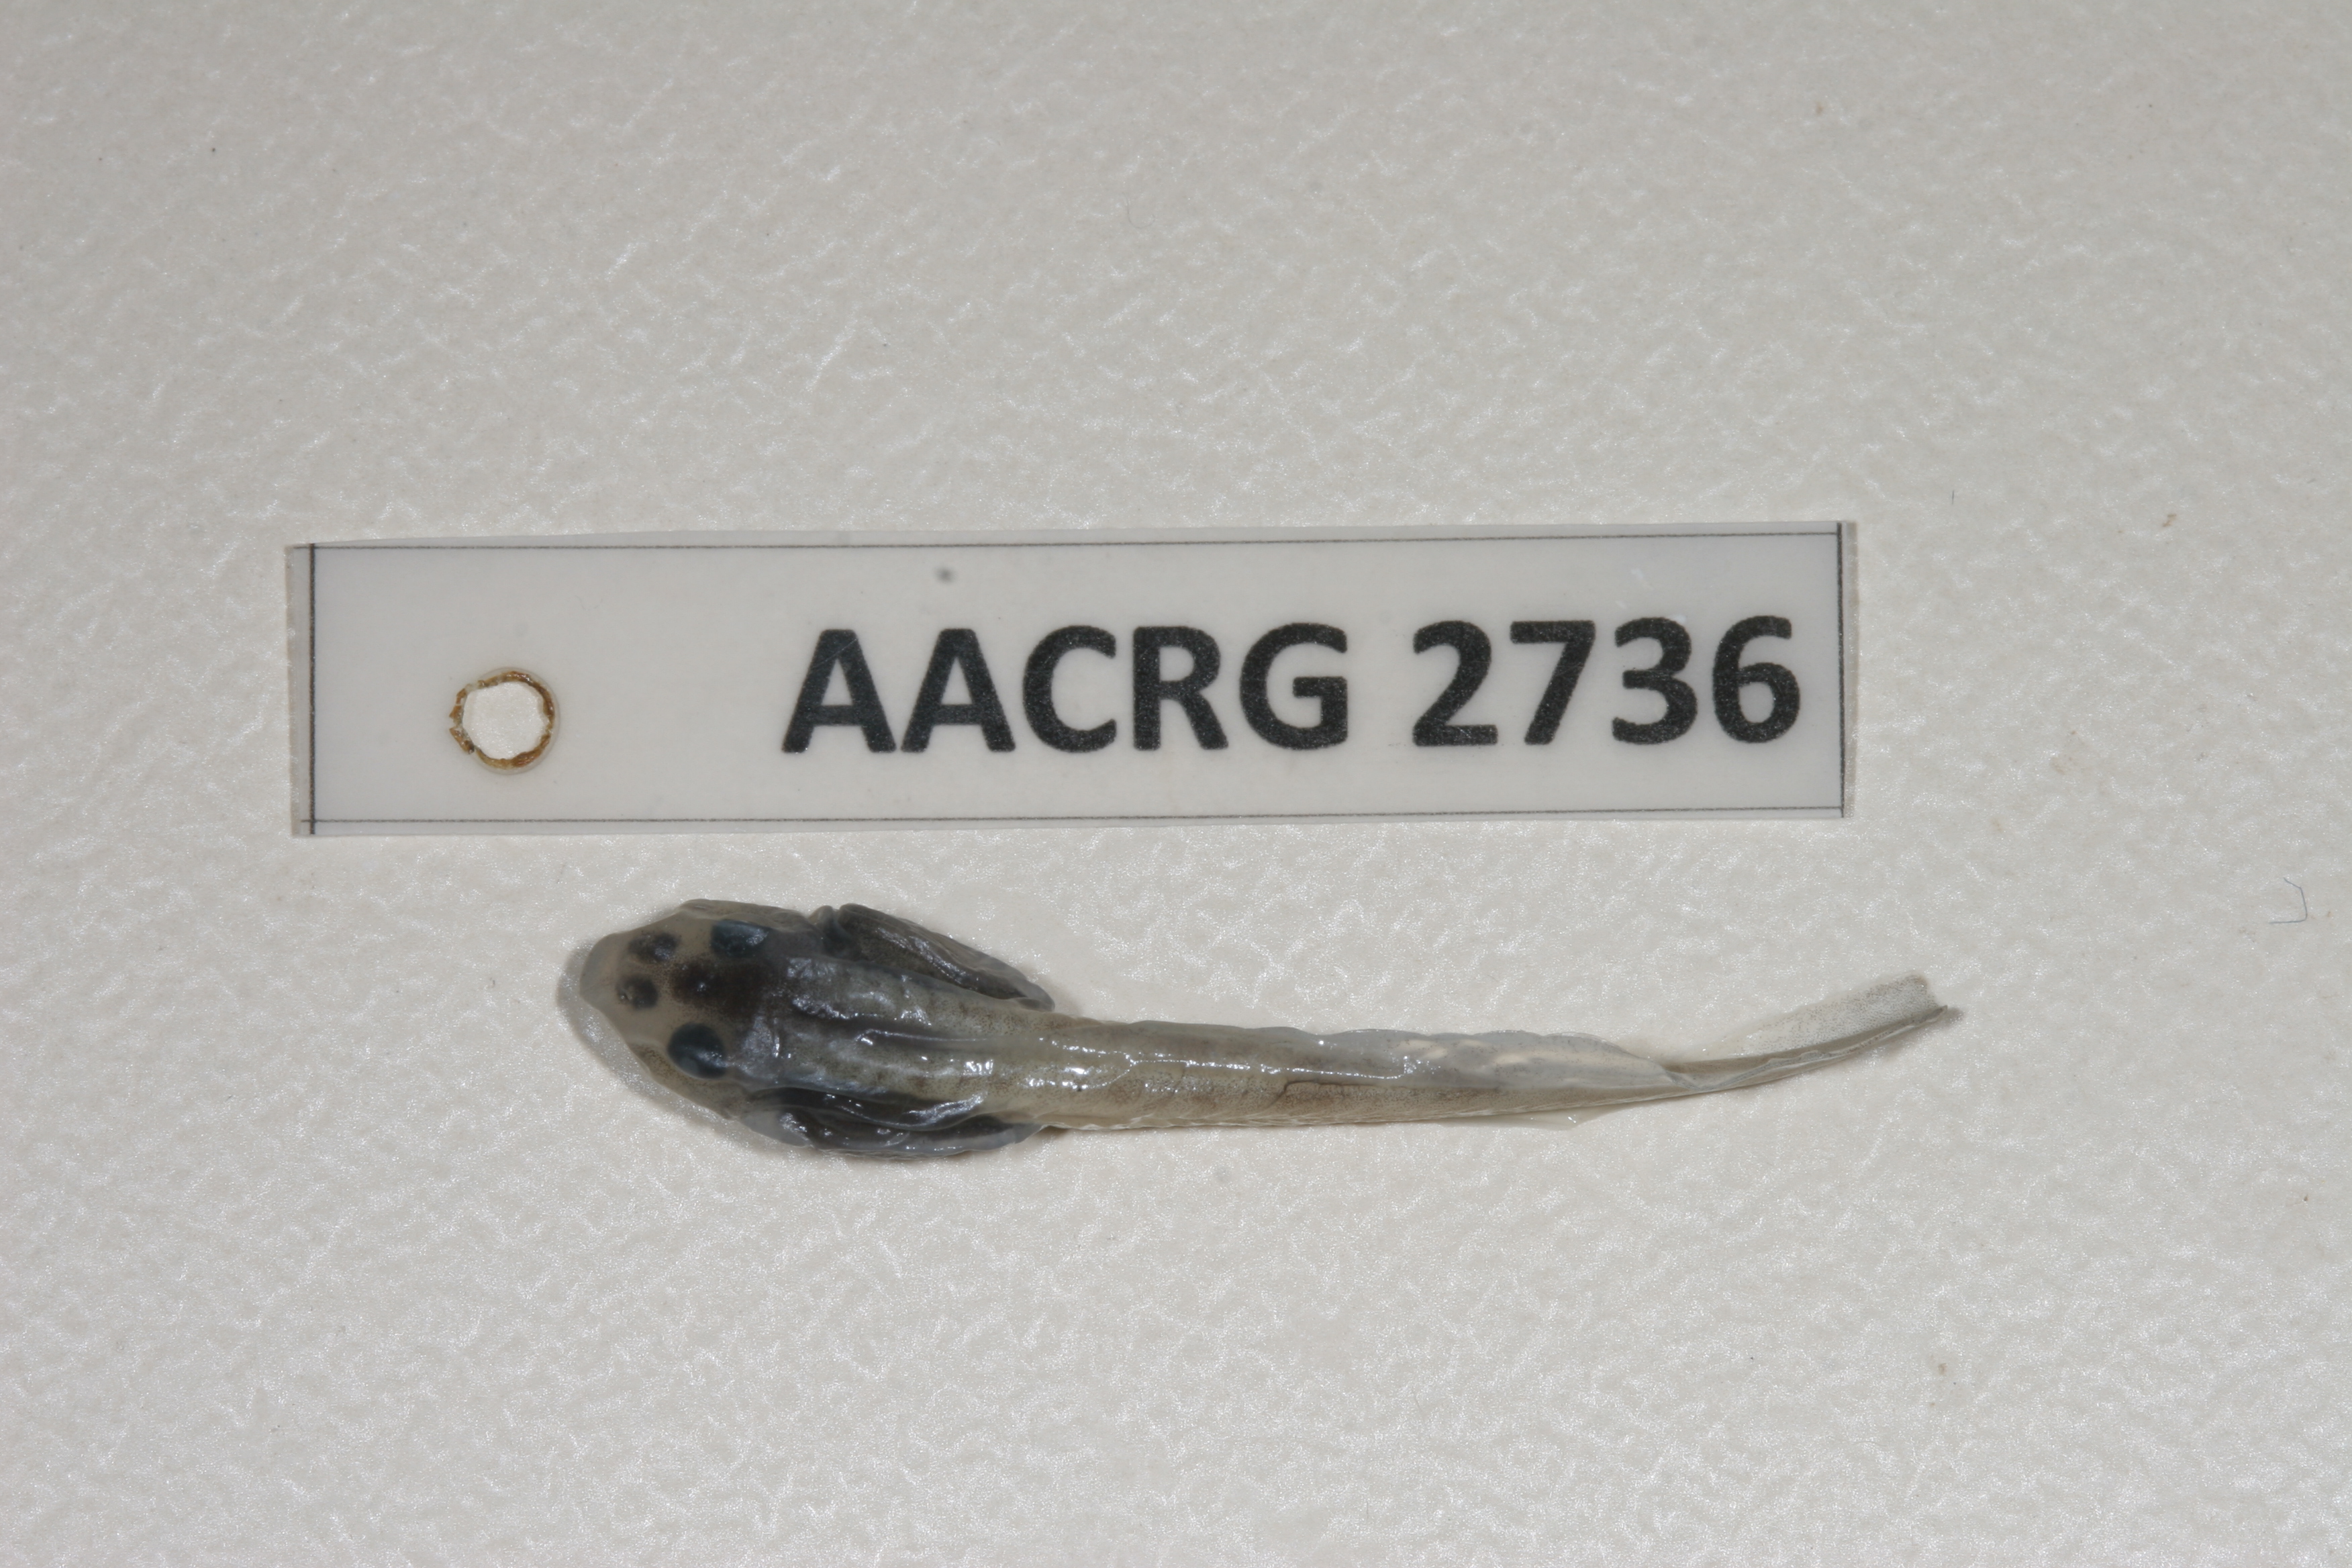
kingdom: Animalia
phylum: Chordata
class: Amphibia
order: Anura
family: Pyxicephalidae
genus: Strongylopus
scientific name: Strongylopus springbokensis
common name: Namaqua stream frog
